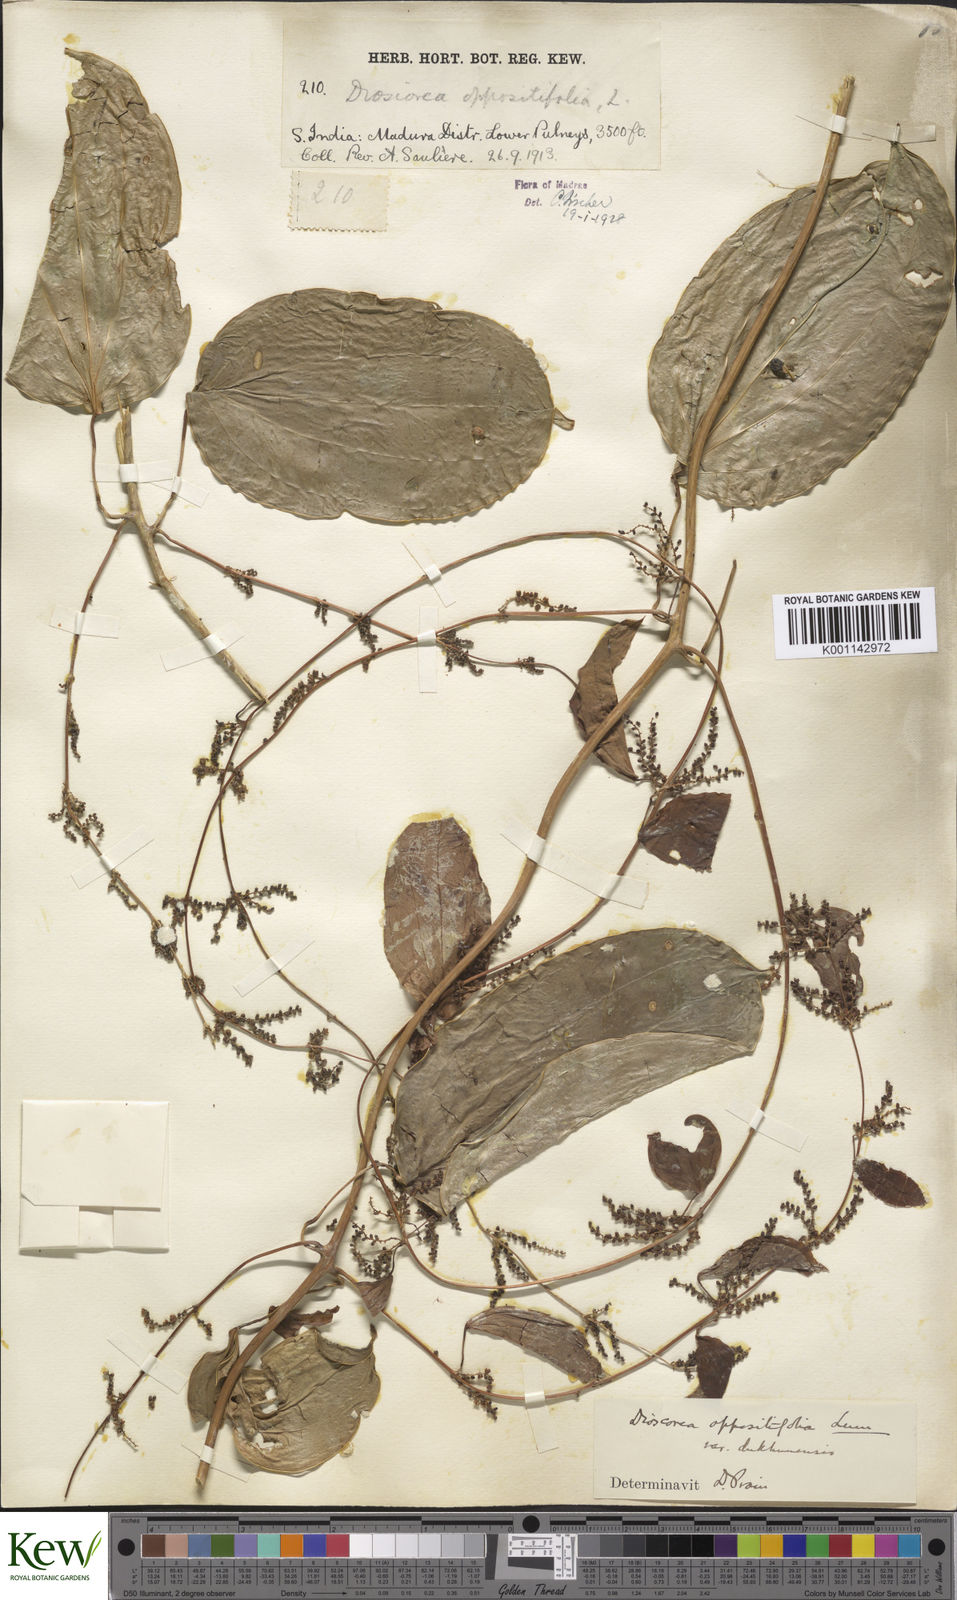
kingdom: Plantae
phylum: Tracheophyta
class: Liliopsida
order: Dioscoreales
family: Dioscoreaceae
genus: Dioscorea
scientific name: Dioscorea oppositifolia
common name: Chinese yam
